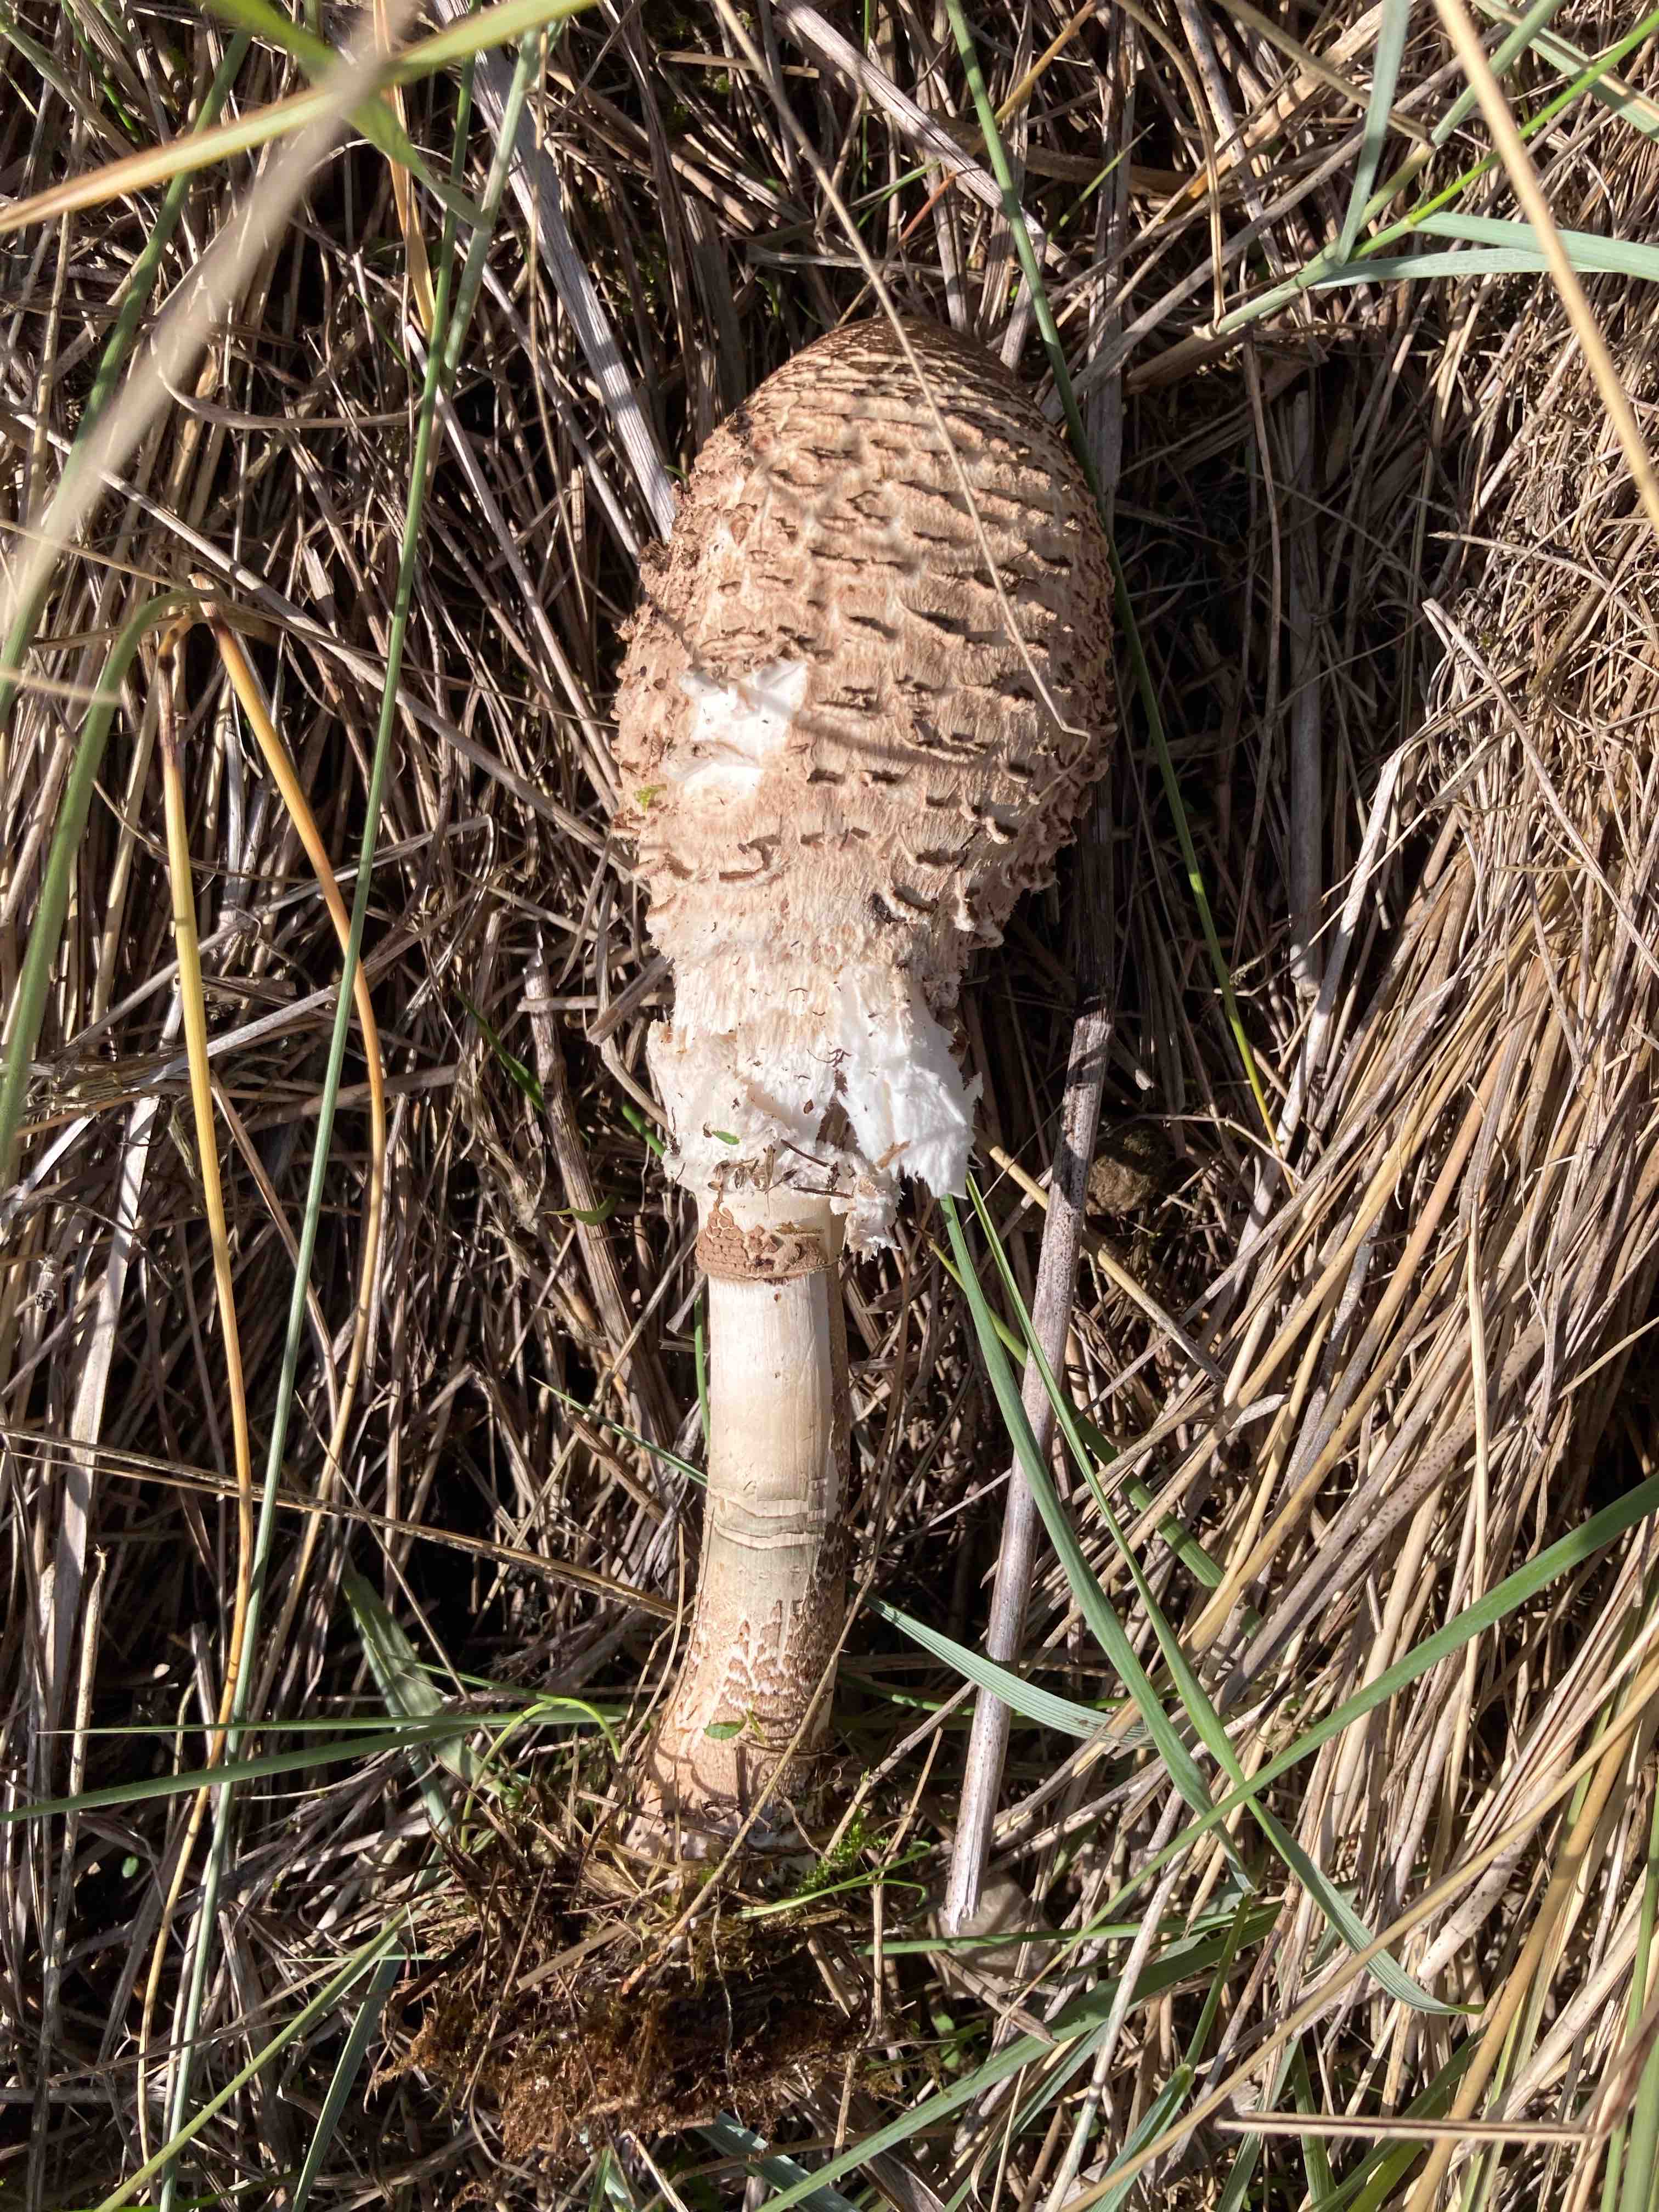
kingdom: Fungi
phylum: Basidiomycota
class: Agaricomycetes
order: Agaricales
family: Agaricaceae
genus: Macrolepiota
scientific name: Macrolepiota procera
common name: stor kæmpeparasolhat
